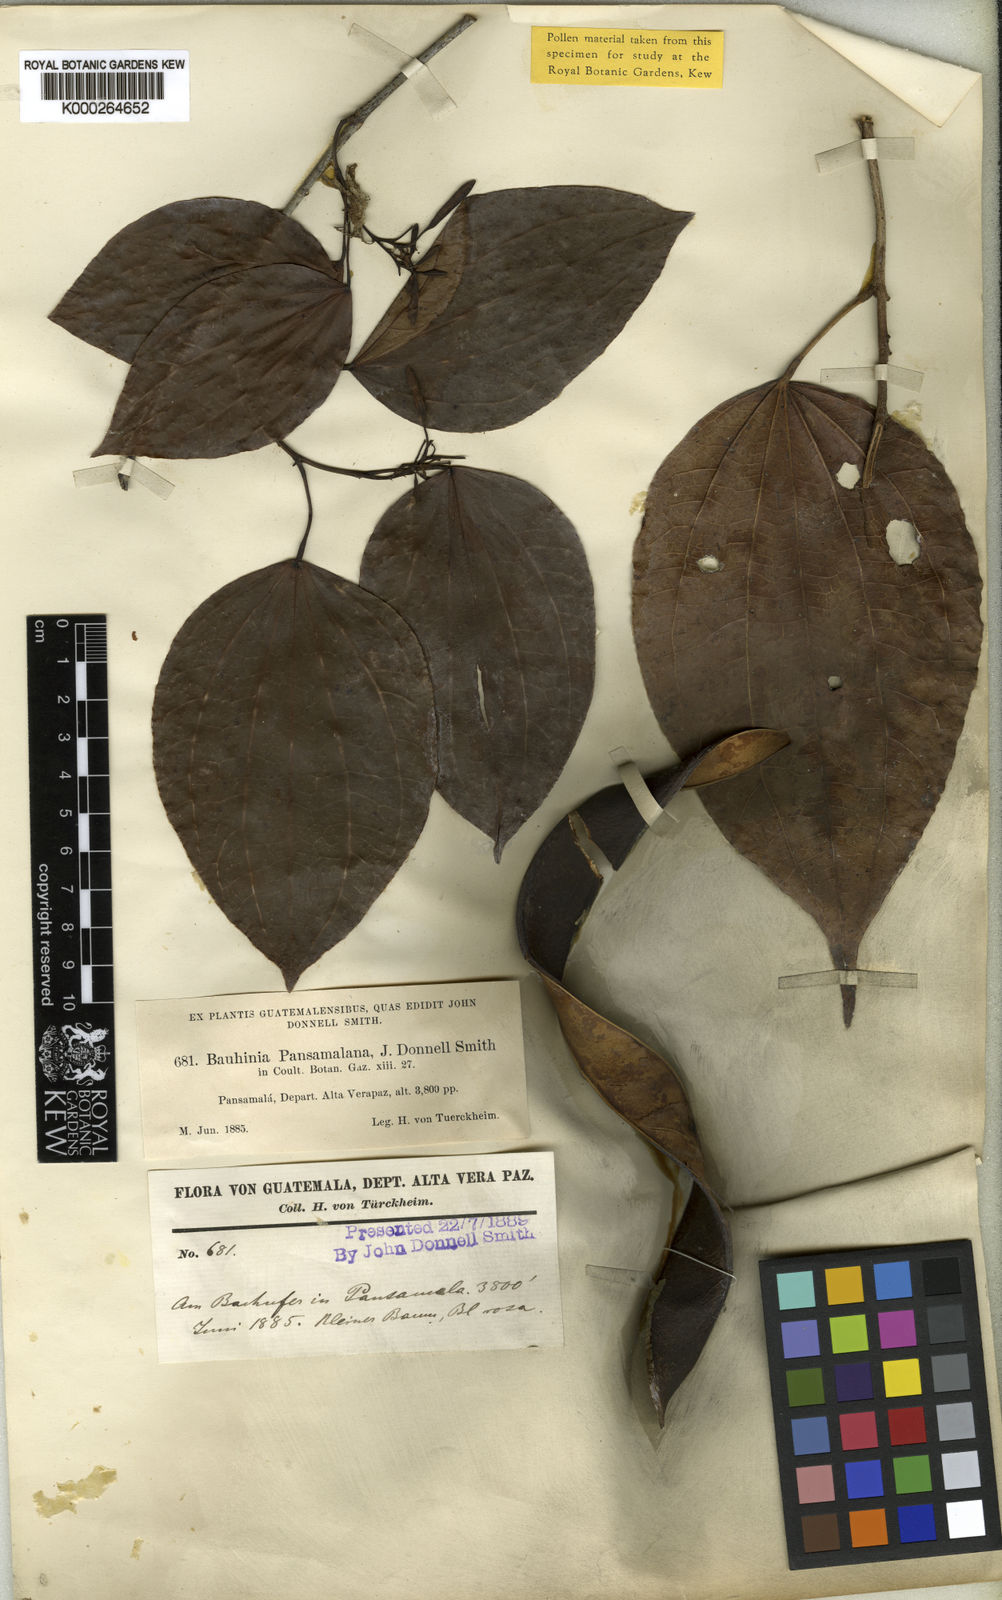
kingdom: Plantae
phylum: Tracheophyta
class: Magnoliopsida
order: Fabales
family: Fabaceae
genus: Bauhinia
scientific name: Bauhinia pansamalana
